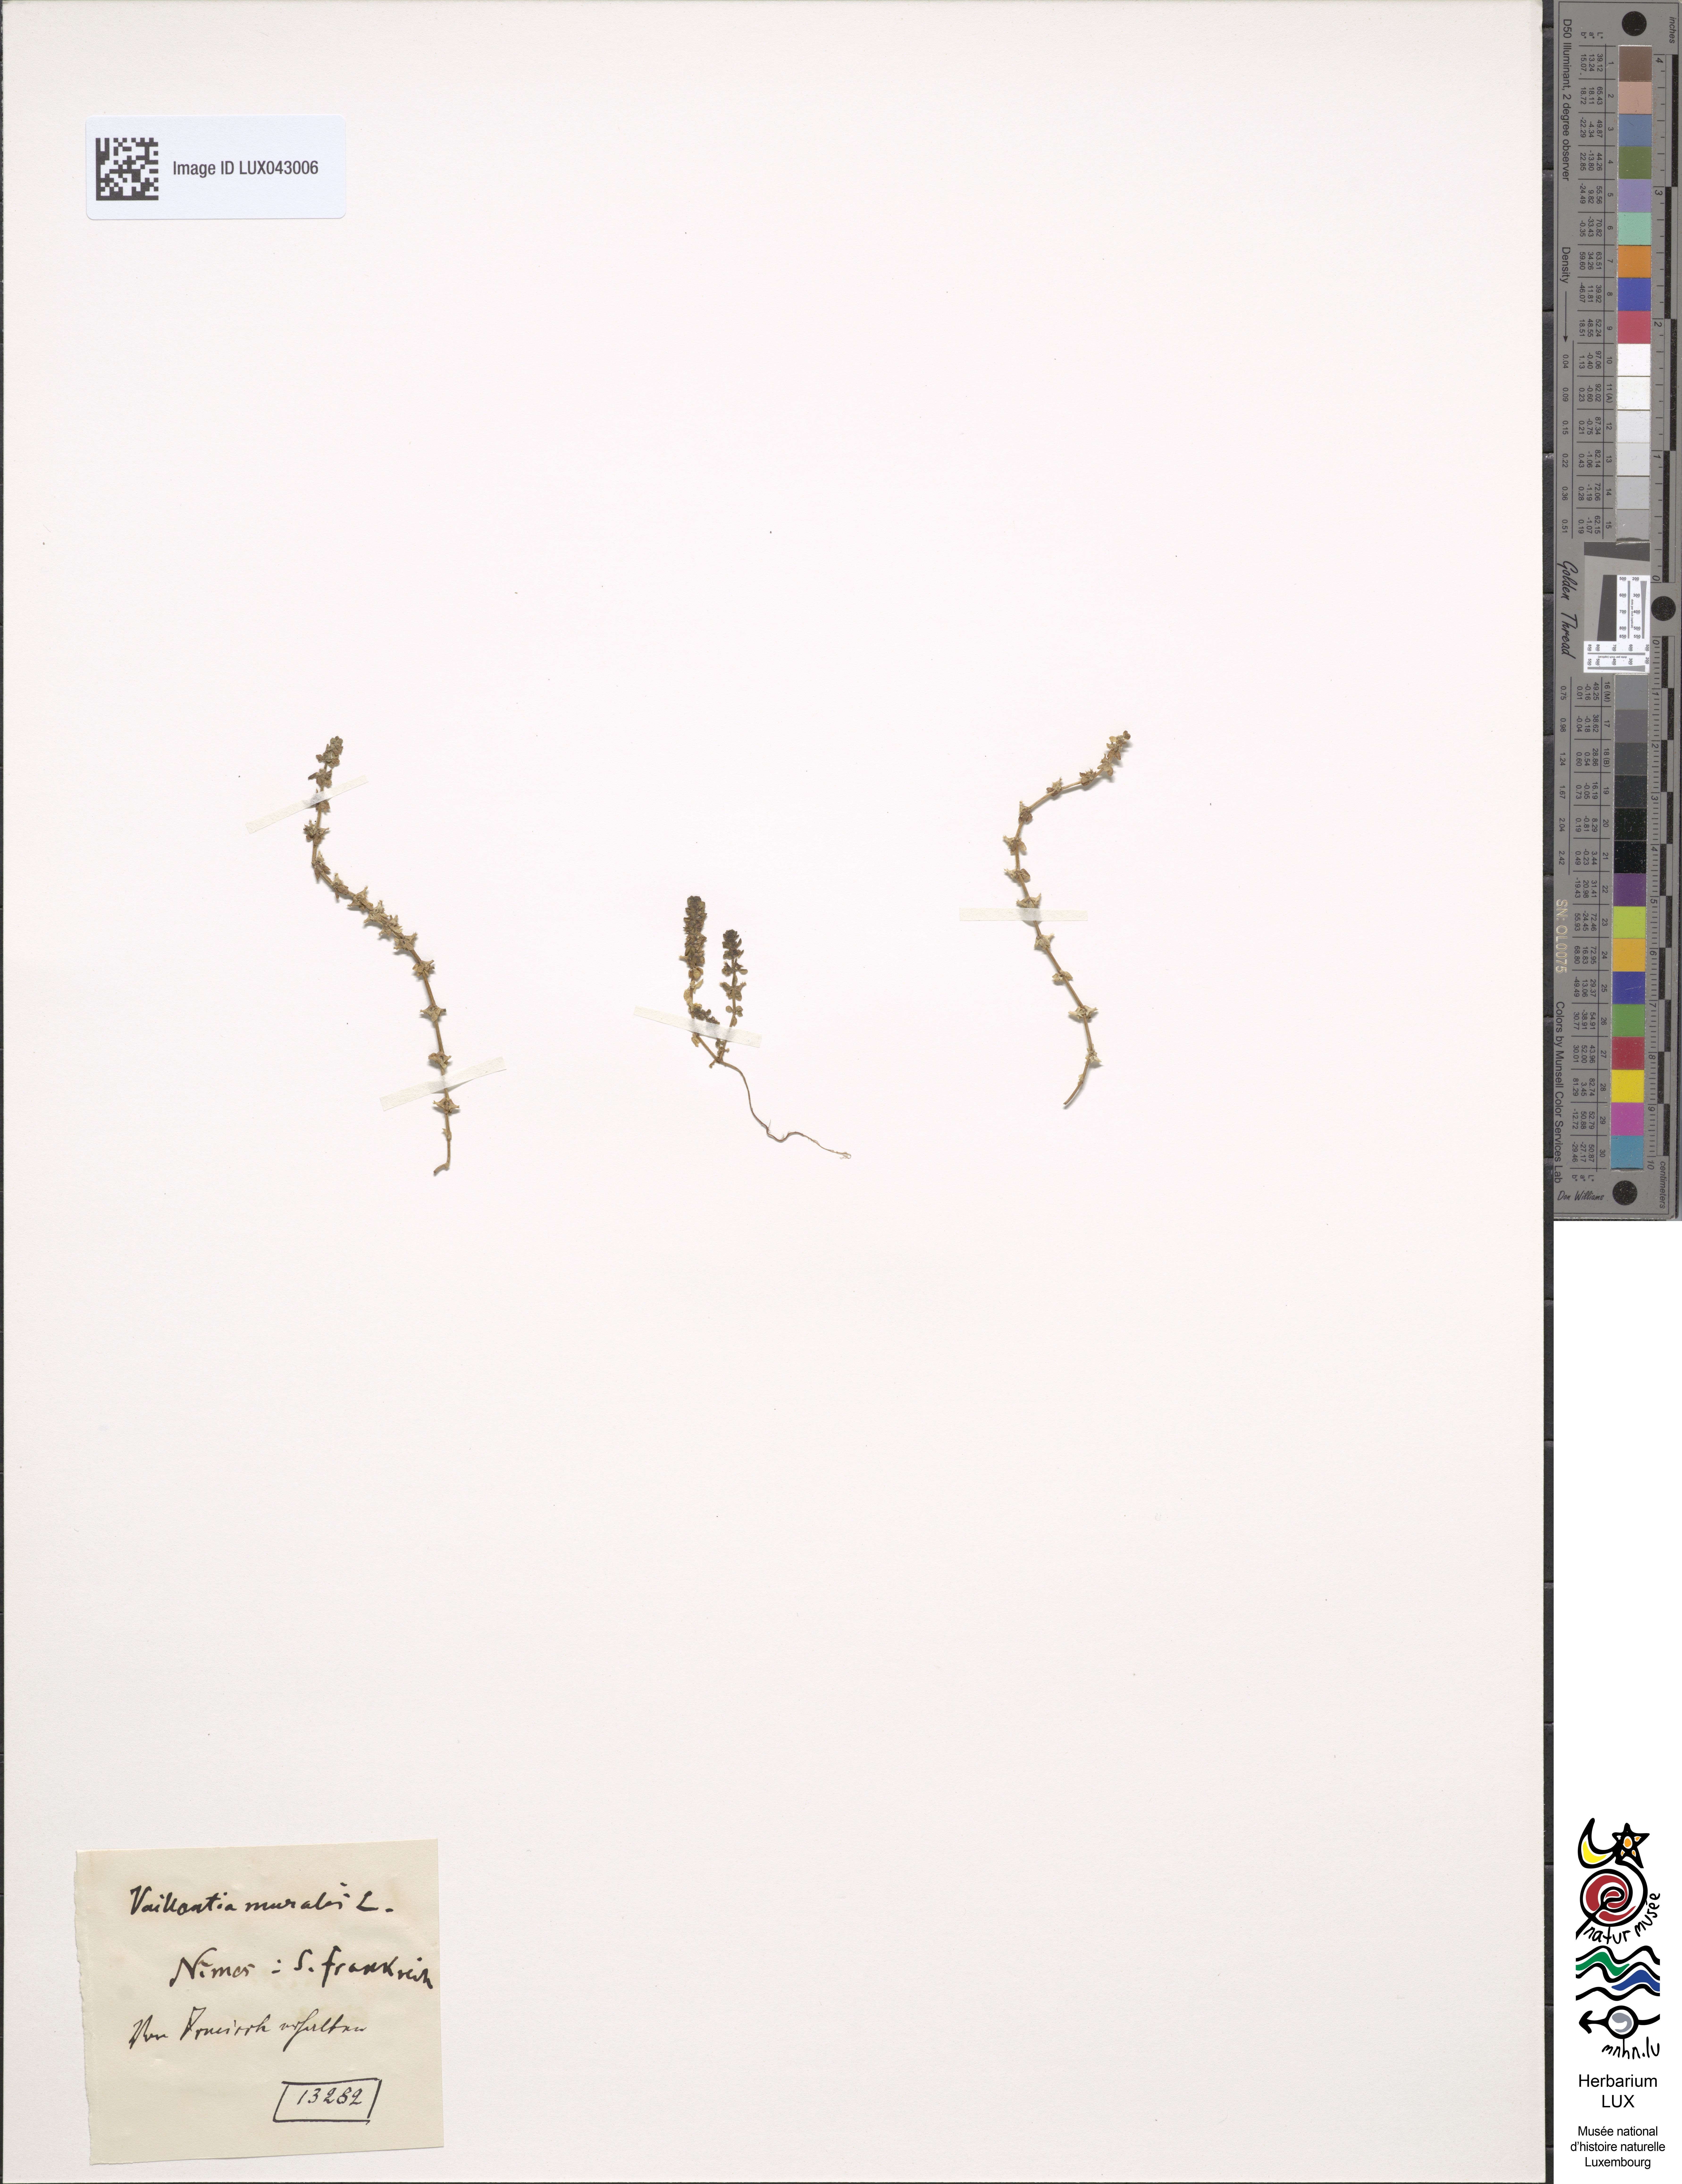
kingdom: Plantae
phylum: Tracheophyta
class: Magnoliopsida
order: Gentianales
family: Rubiaceae
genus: Valantia
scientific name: Valantia muralis
